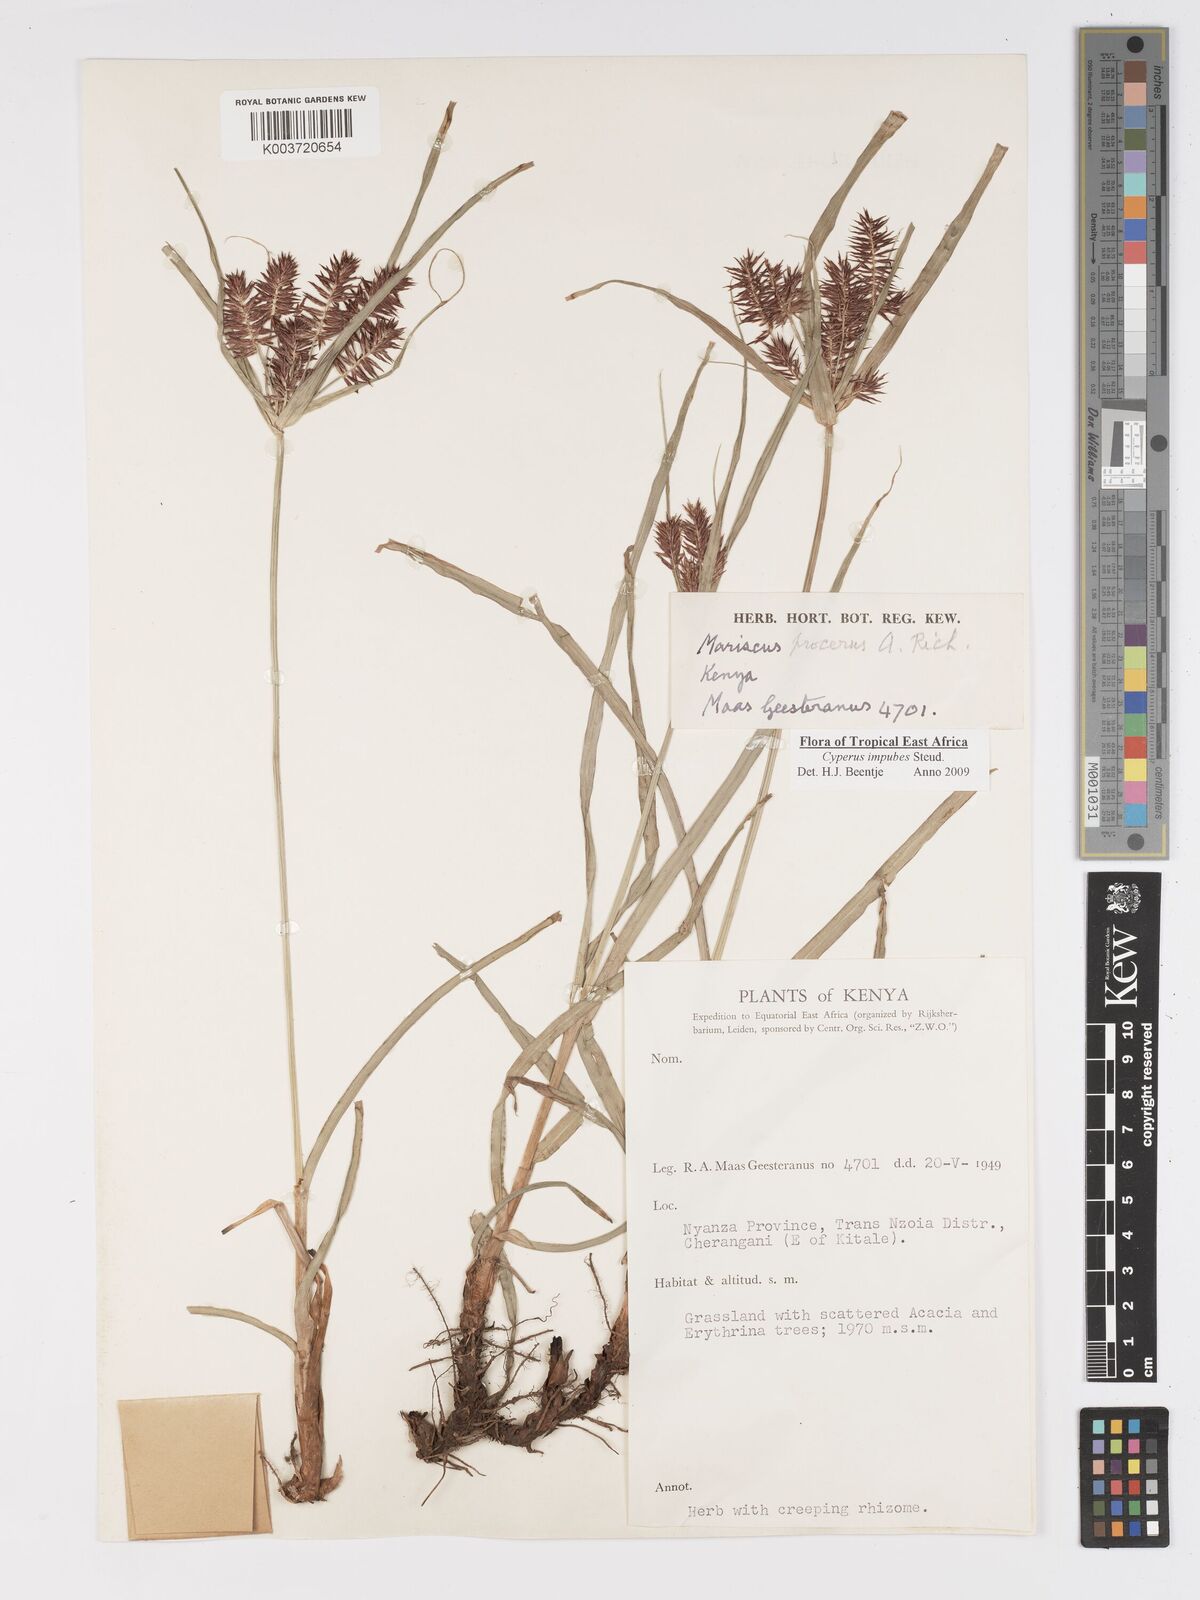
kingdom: Plantae
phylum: Tracheophyta
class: Liliopsida
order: Poales
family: Cyperaceae
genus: Cyperus
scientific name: Cyperus impubes
